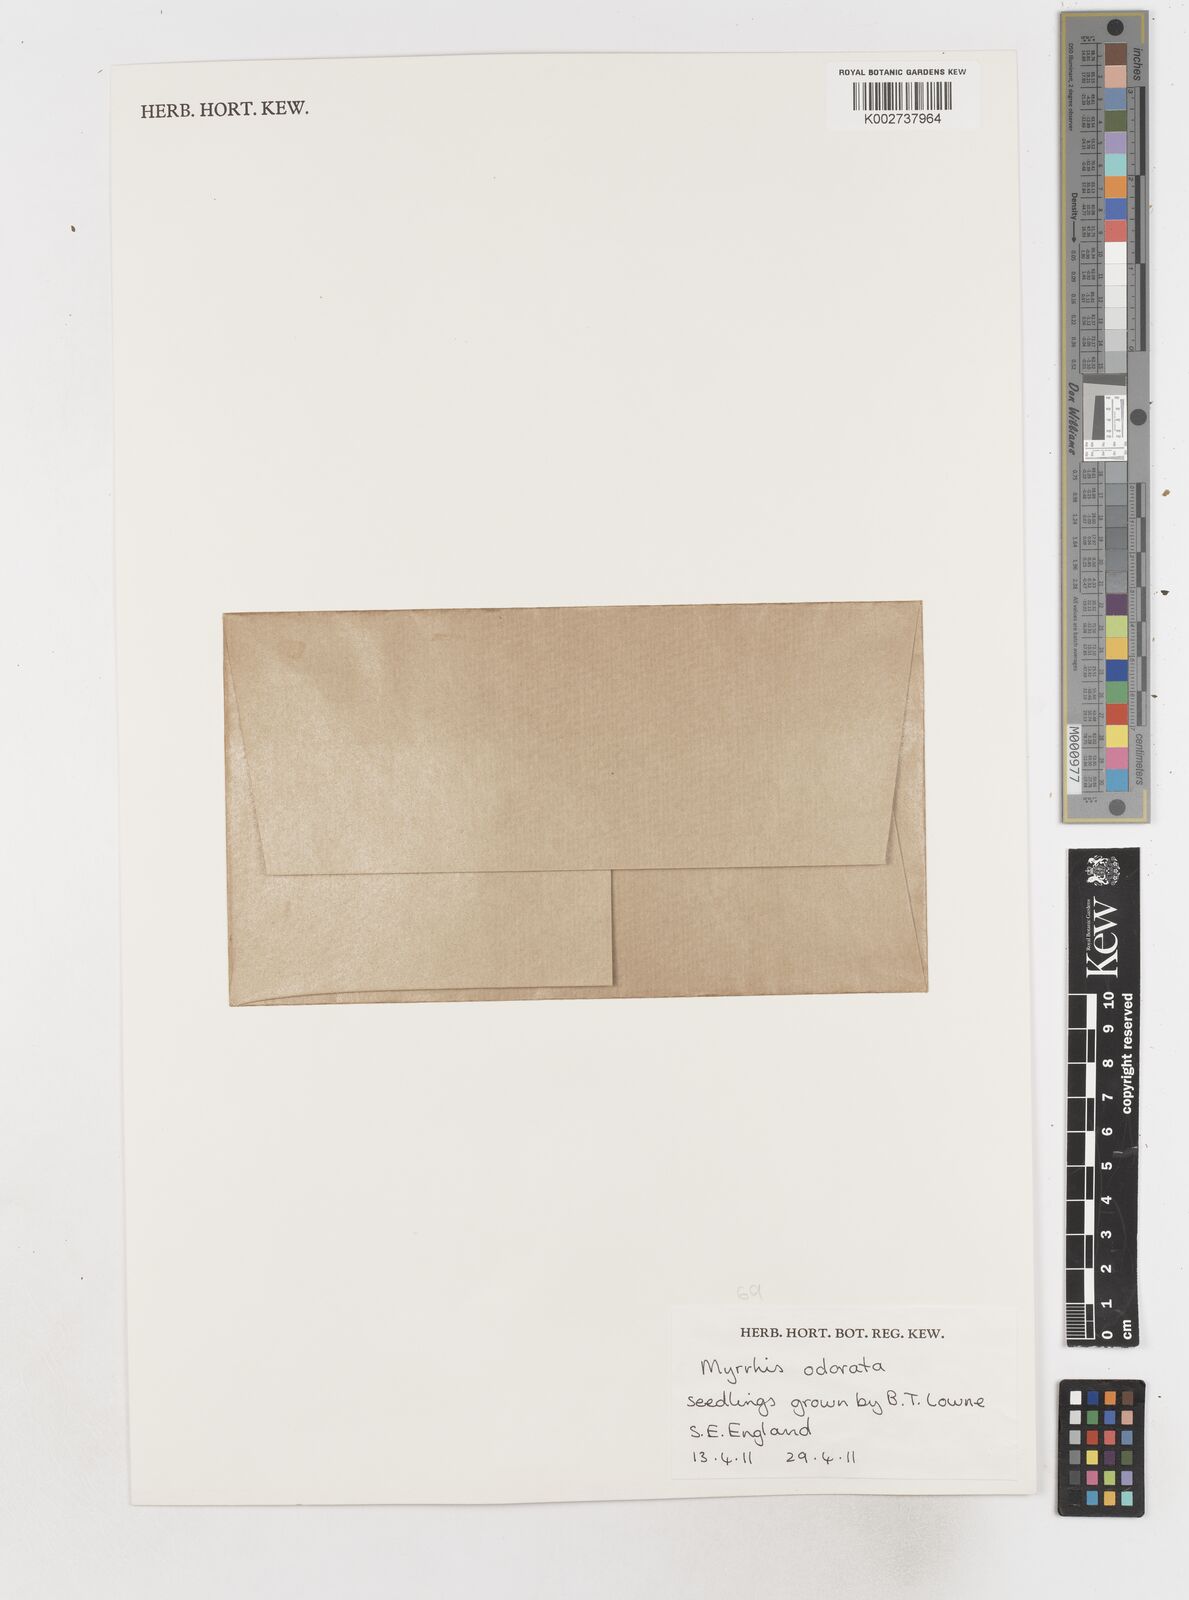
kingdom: Plantae
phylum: Tracheophyta
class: Magnoliopsida
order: Apiales
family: Apiaceae
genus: Myrrhis
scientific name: Myrrhis odorata
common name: Sweet cicely
